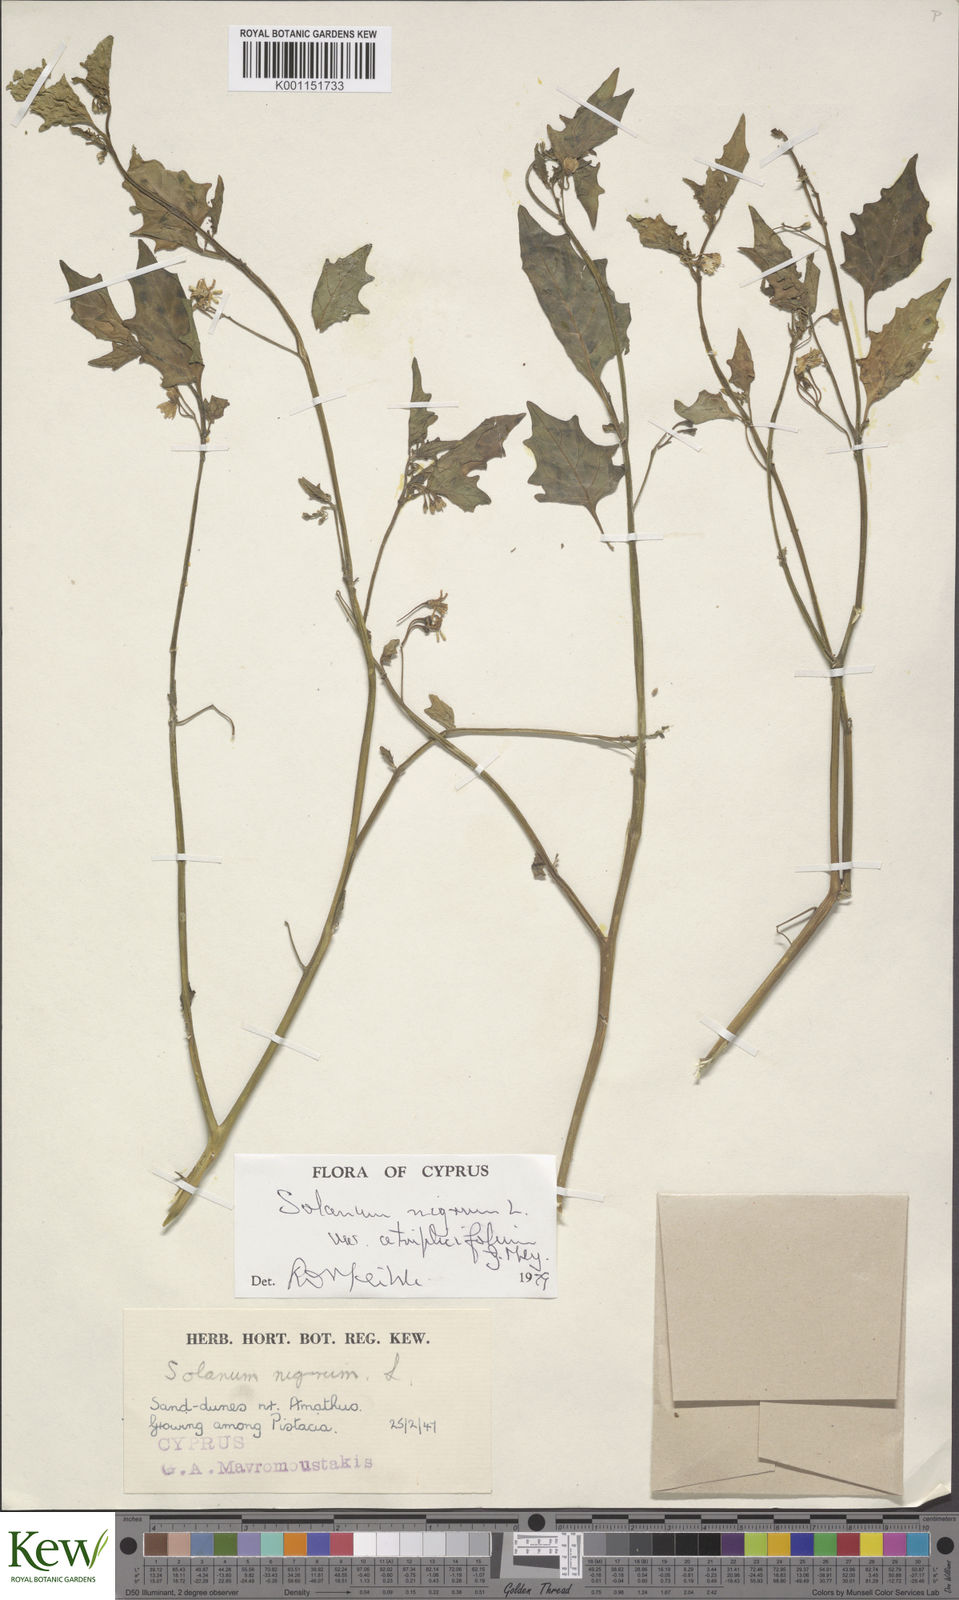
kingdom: Plantae
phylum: Tracheophyta
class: Magnoliopsida
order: Solanales
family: Solanaceae
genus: Solanum
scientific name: Solanum nigrum
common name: Black nightshade
